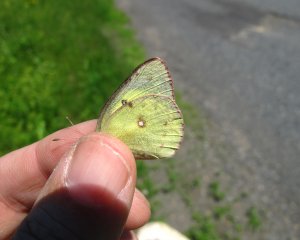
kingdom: Animalia
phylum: Arthropoda
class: Insecta
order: Lepidoptera
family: Pieridae
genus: Colias
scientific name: Colias philodice
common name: Clouded Sulphur
